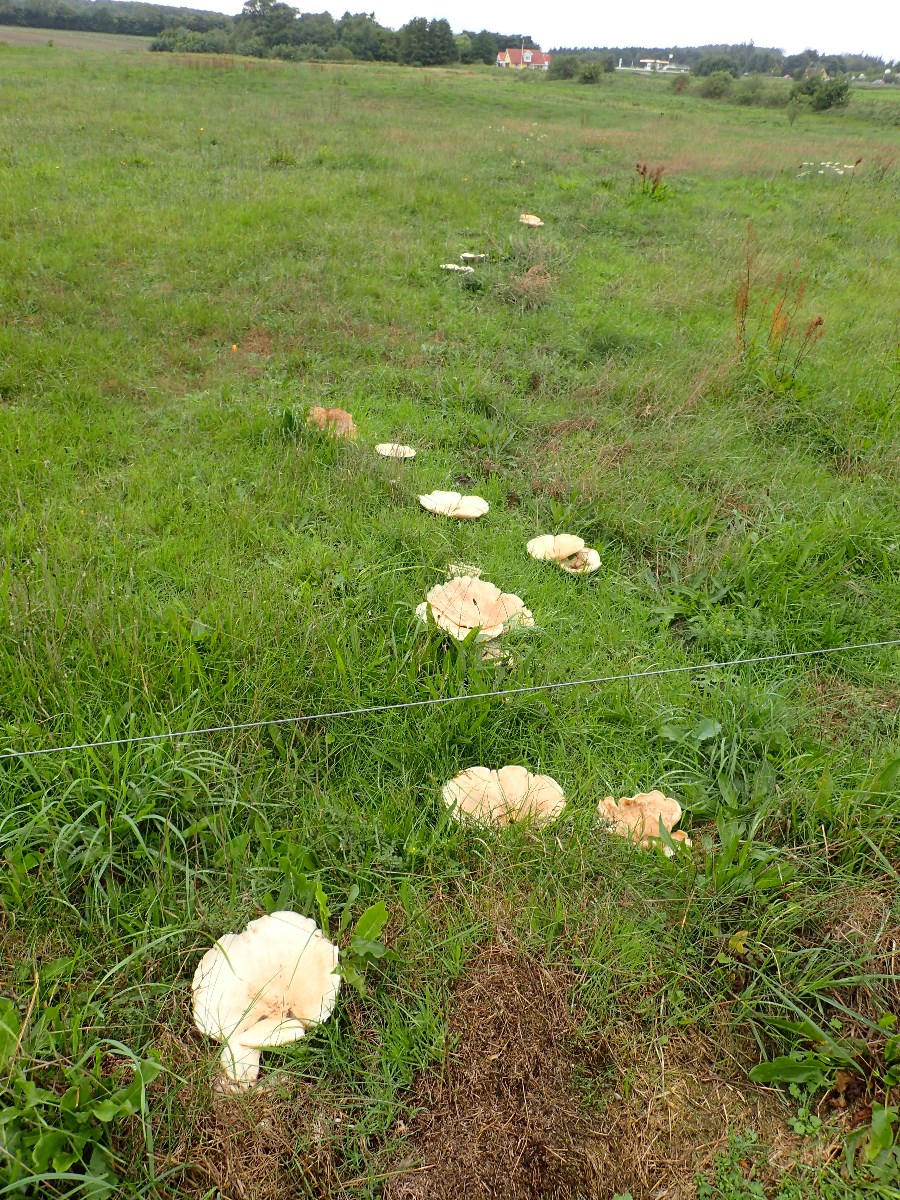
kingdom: Fungi
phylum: Basidiomycota
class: Agaricomycetes
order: Agaricales
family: Tricholomataceae
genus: Aspropaxillus
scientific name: Aspropaxillus giganteus
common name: kæmpe-tragtridderhat
